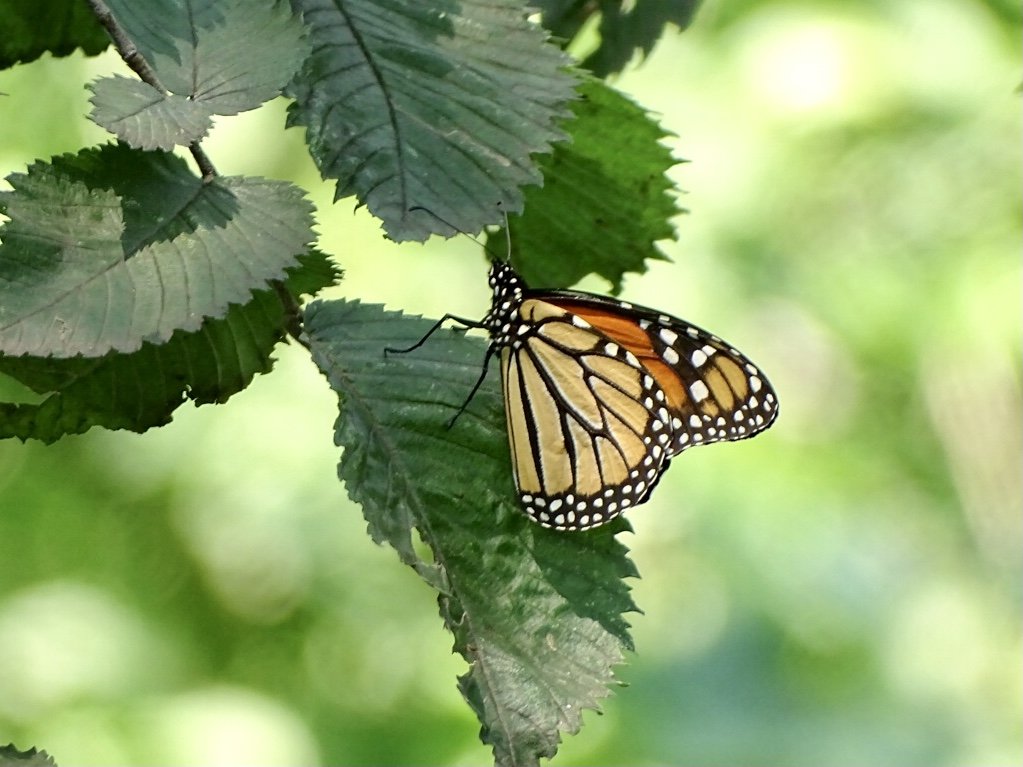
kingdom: Animalia
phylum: Arthropoda
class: Insecta
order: Lepidoptera
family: Nymphalidae
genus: Danaus
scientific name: Danaus plexippus
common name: Monarch
